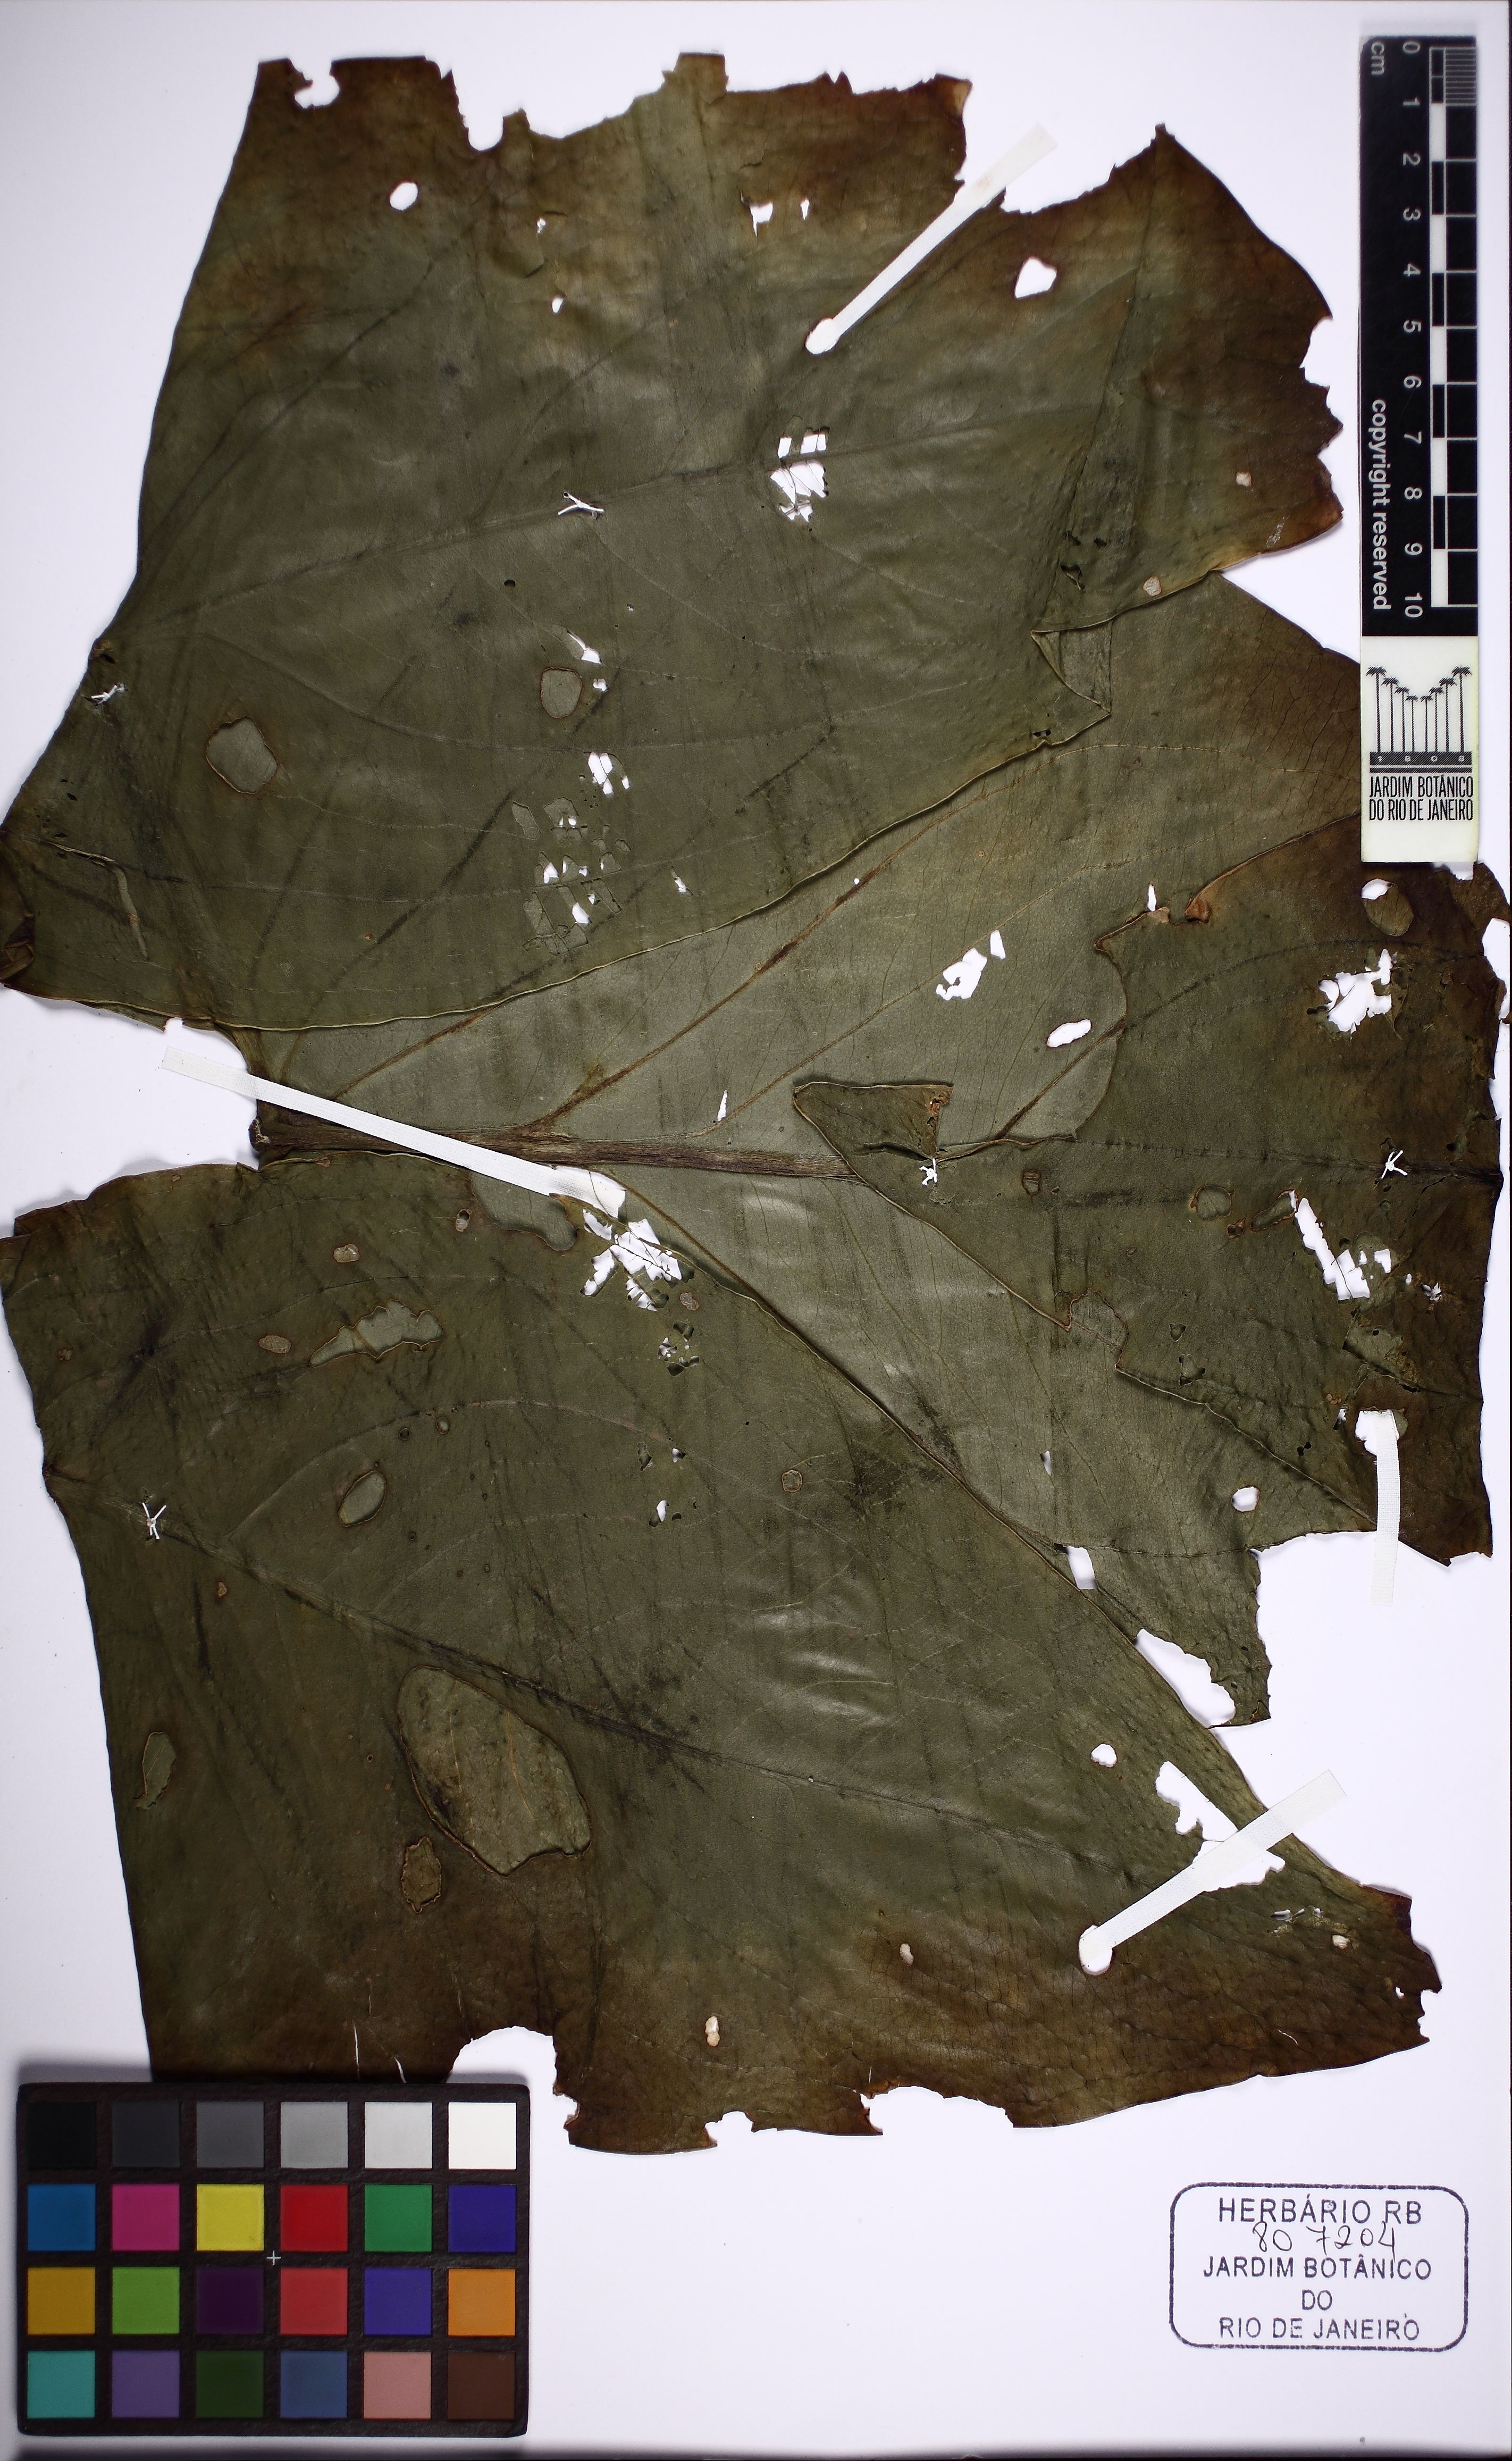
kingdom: Plantae
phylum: Tracheophyta
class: Liliopsida
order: Alismatales
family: Araceae
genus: Urospatha
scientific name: Urospatha sagittifolia
